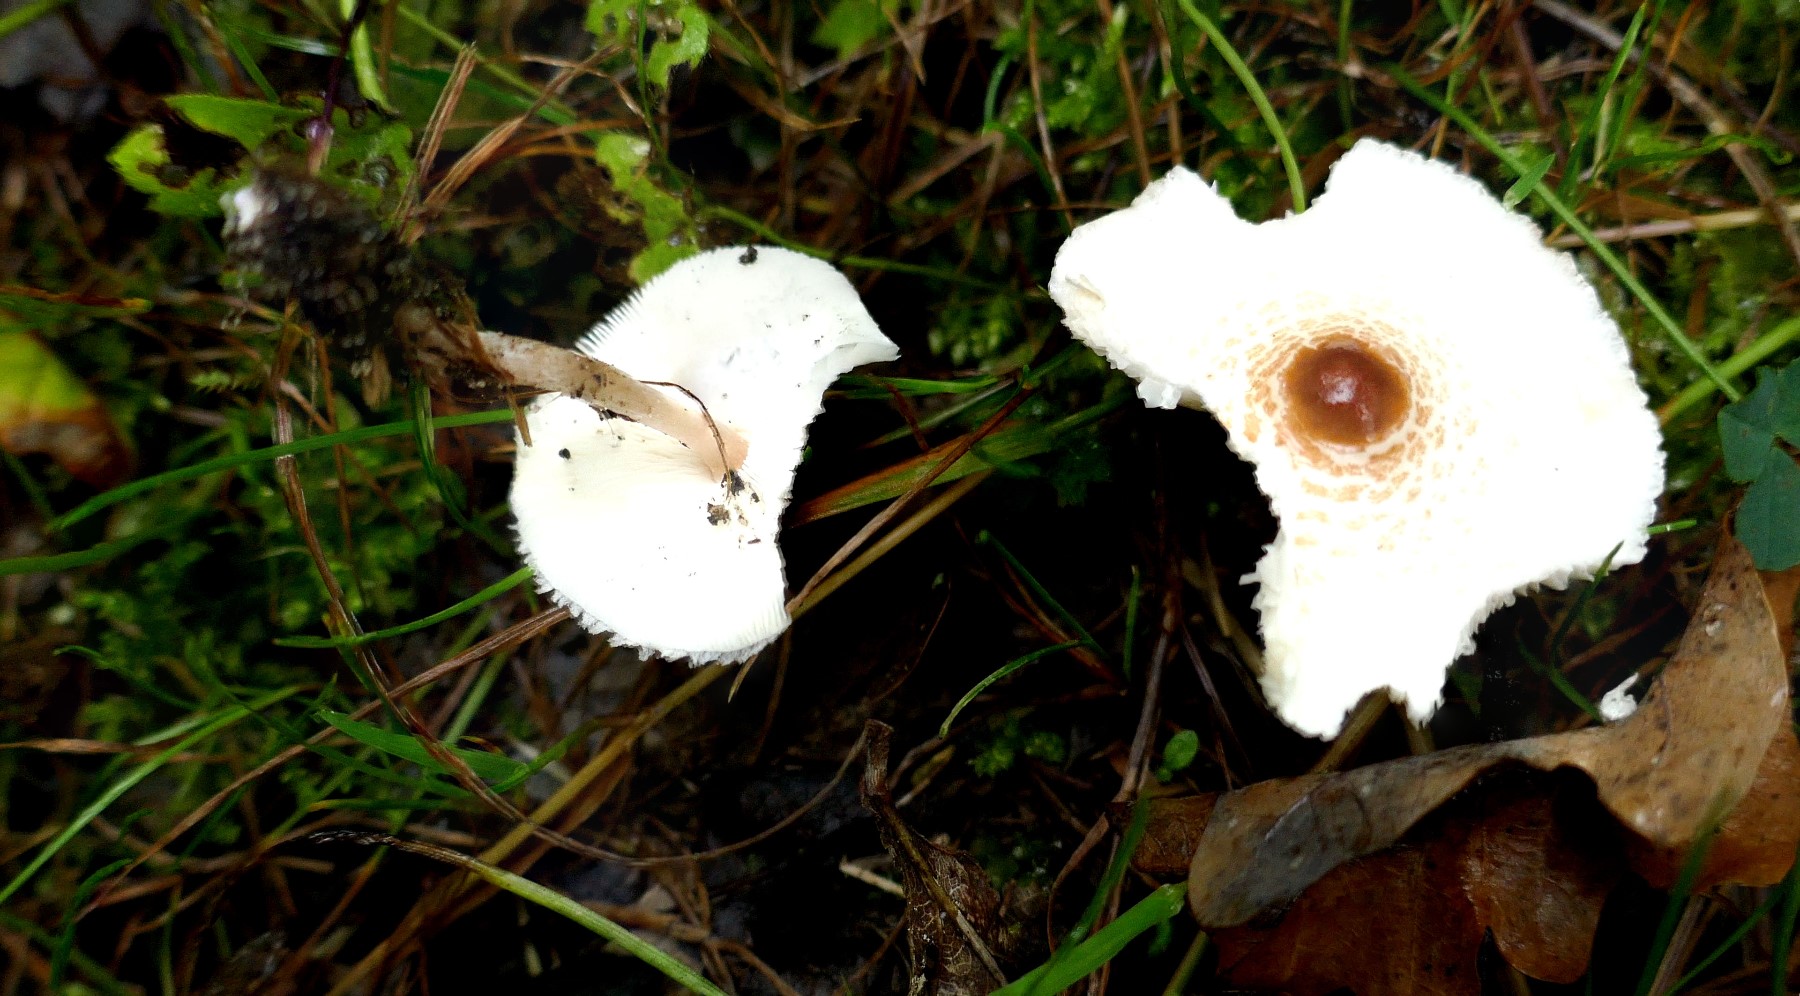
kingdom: Fungi
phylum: Basidiomycota
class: Agaricomycetes
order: Agaricales
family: Agaricaceae
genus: Lepiota
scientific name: Lepiota cristata
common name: stinkende parasolhat
